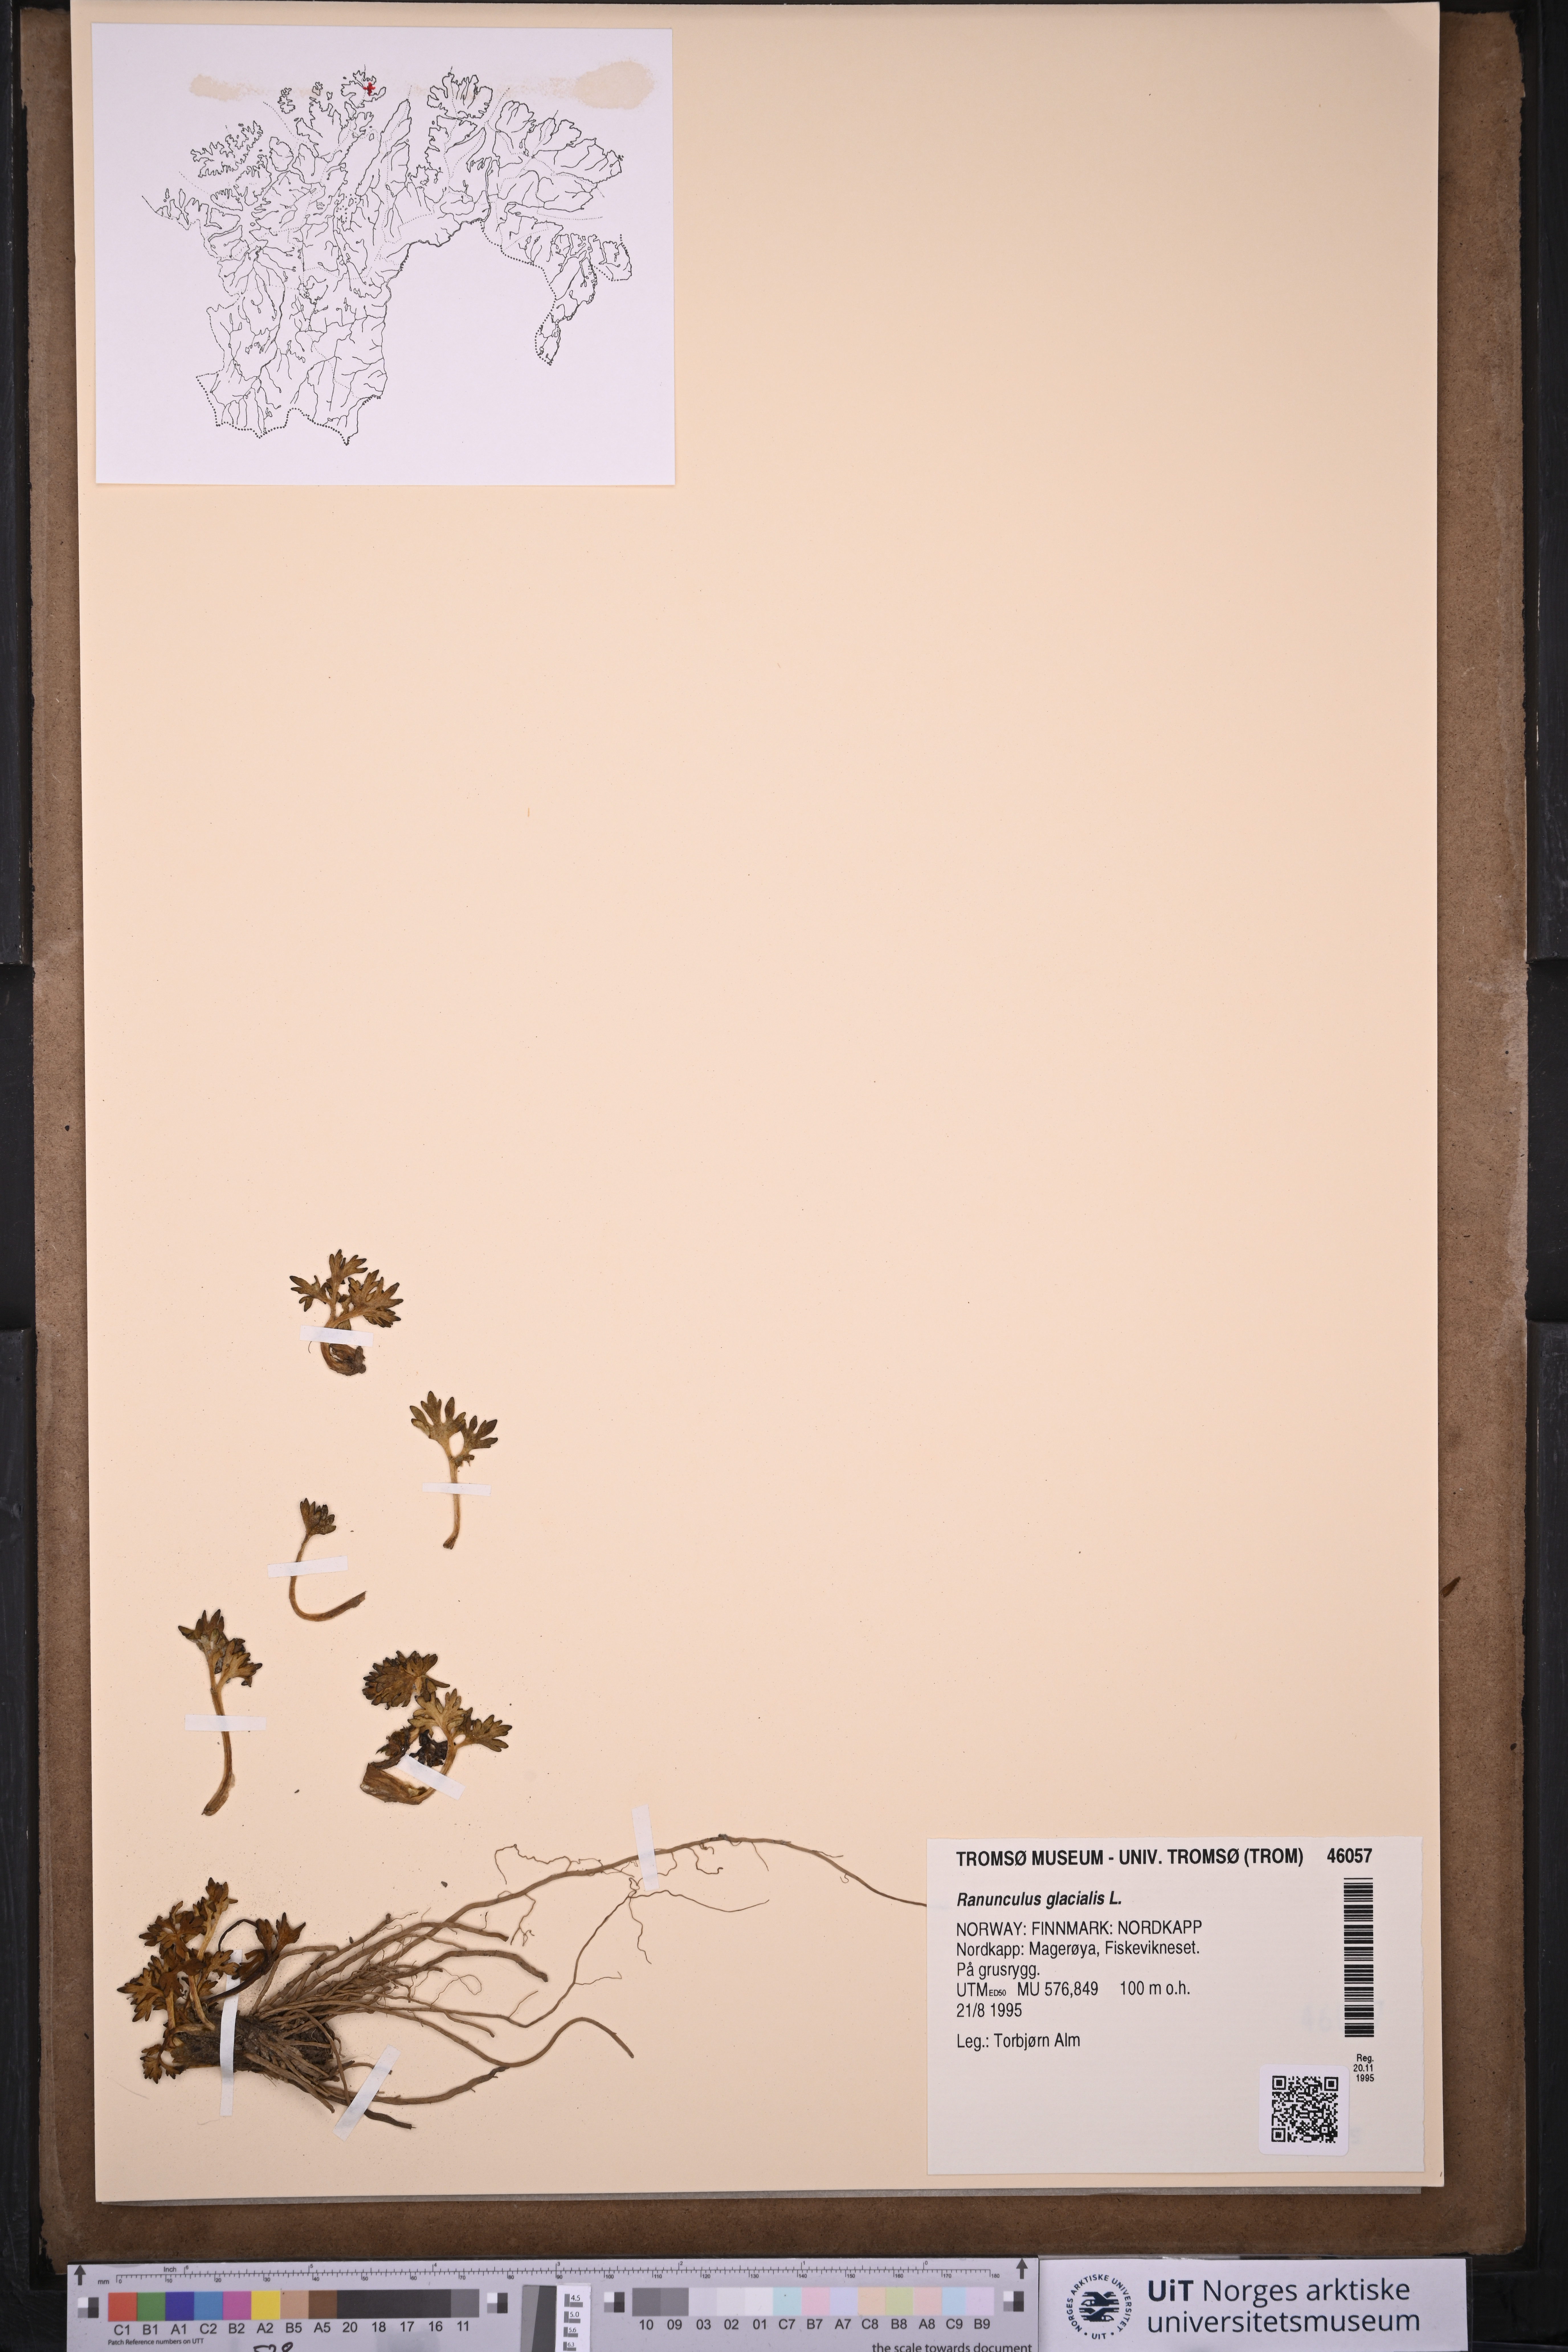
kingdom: Plantae
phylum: Tracheophyta
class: Magnoliopsida
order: Ranunculales
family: Ranunculaceae
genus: Ranunculus
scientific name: Ranunculus glacialis
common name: Glacier buttercup
